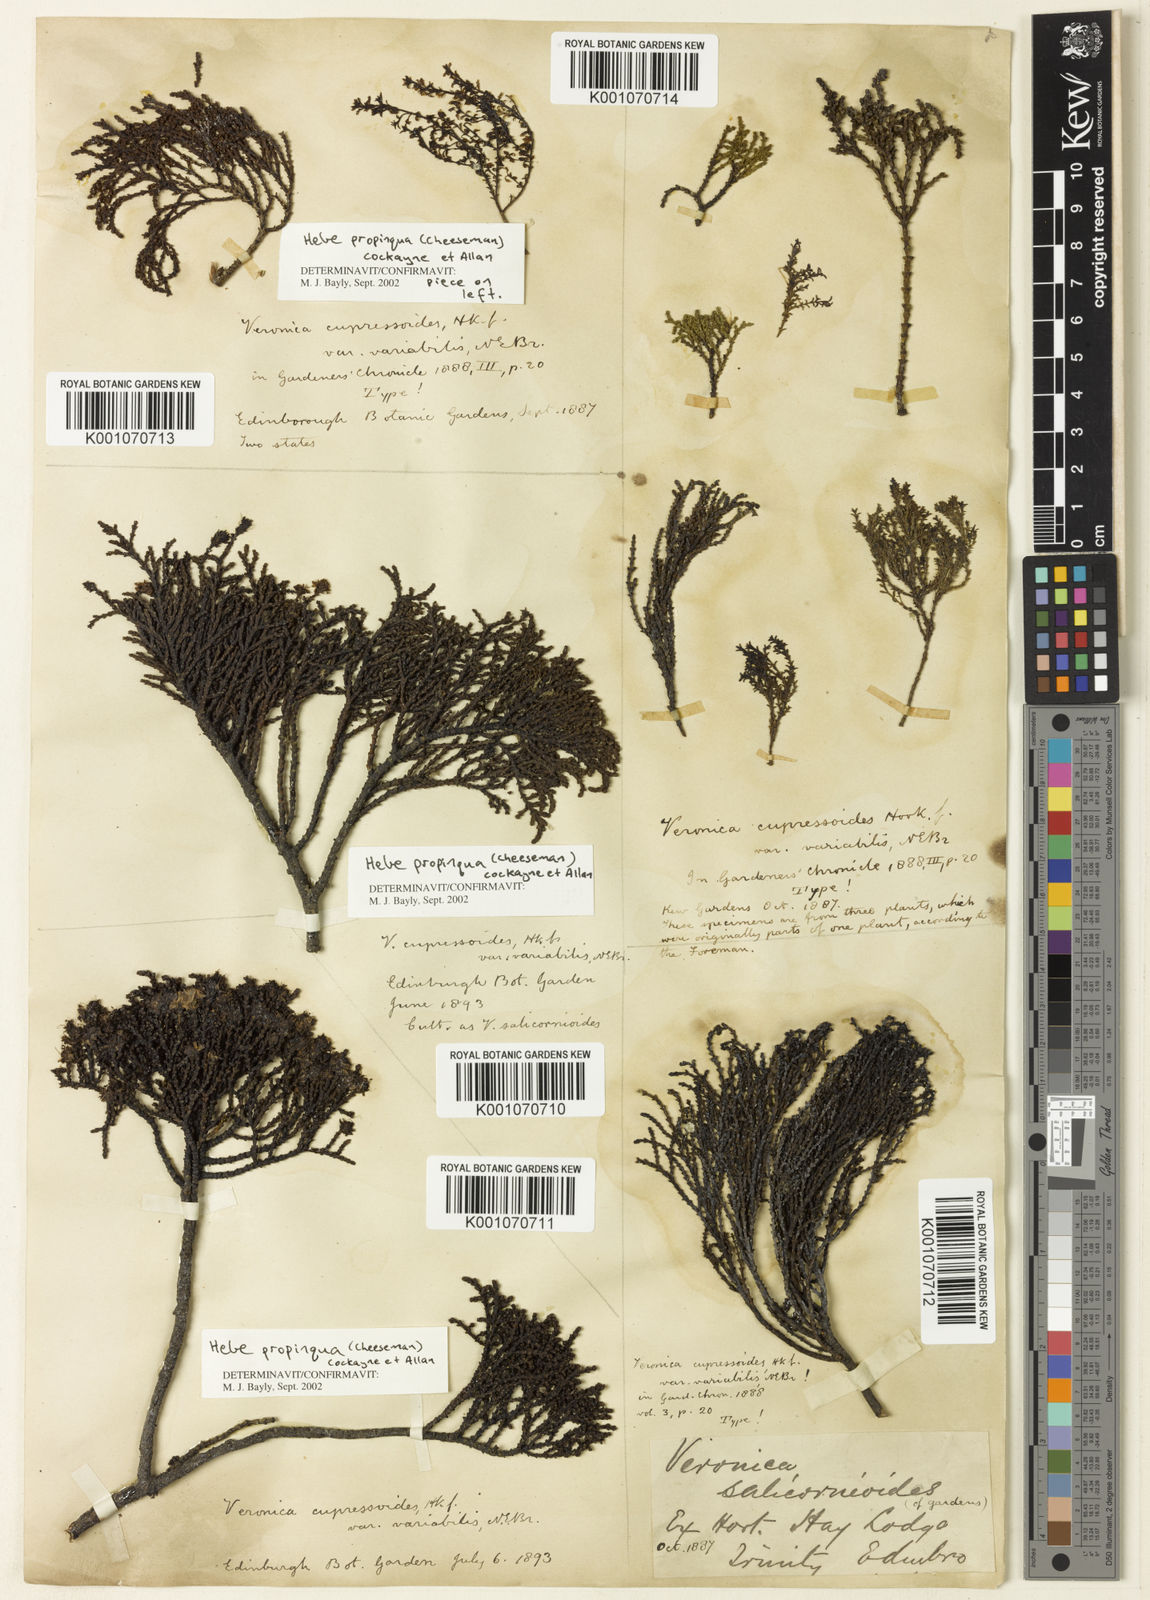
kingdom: Plantae
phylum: Tracheophyta
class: Magnoliopsida
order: Lamiales
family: Plantaginaceae
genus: Veronica
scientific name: Veronica propinqua
